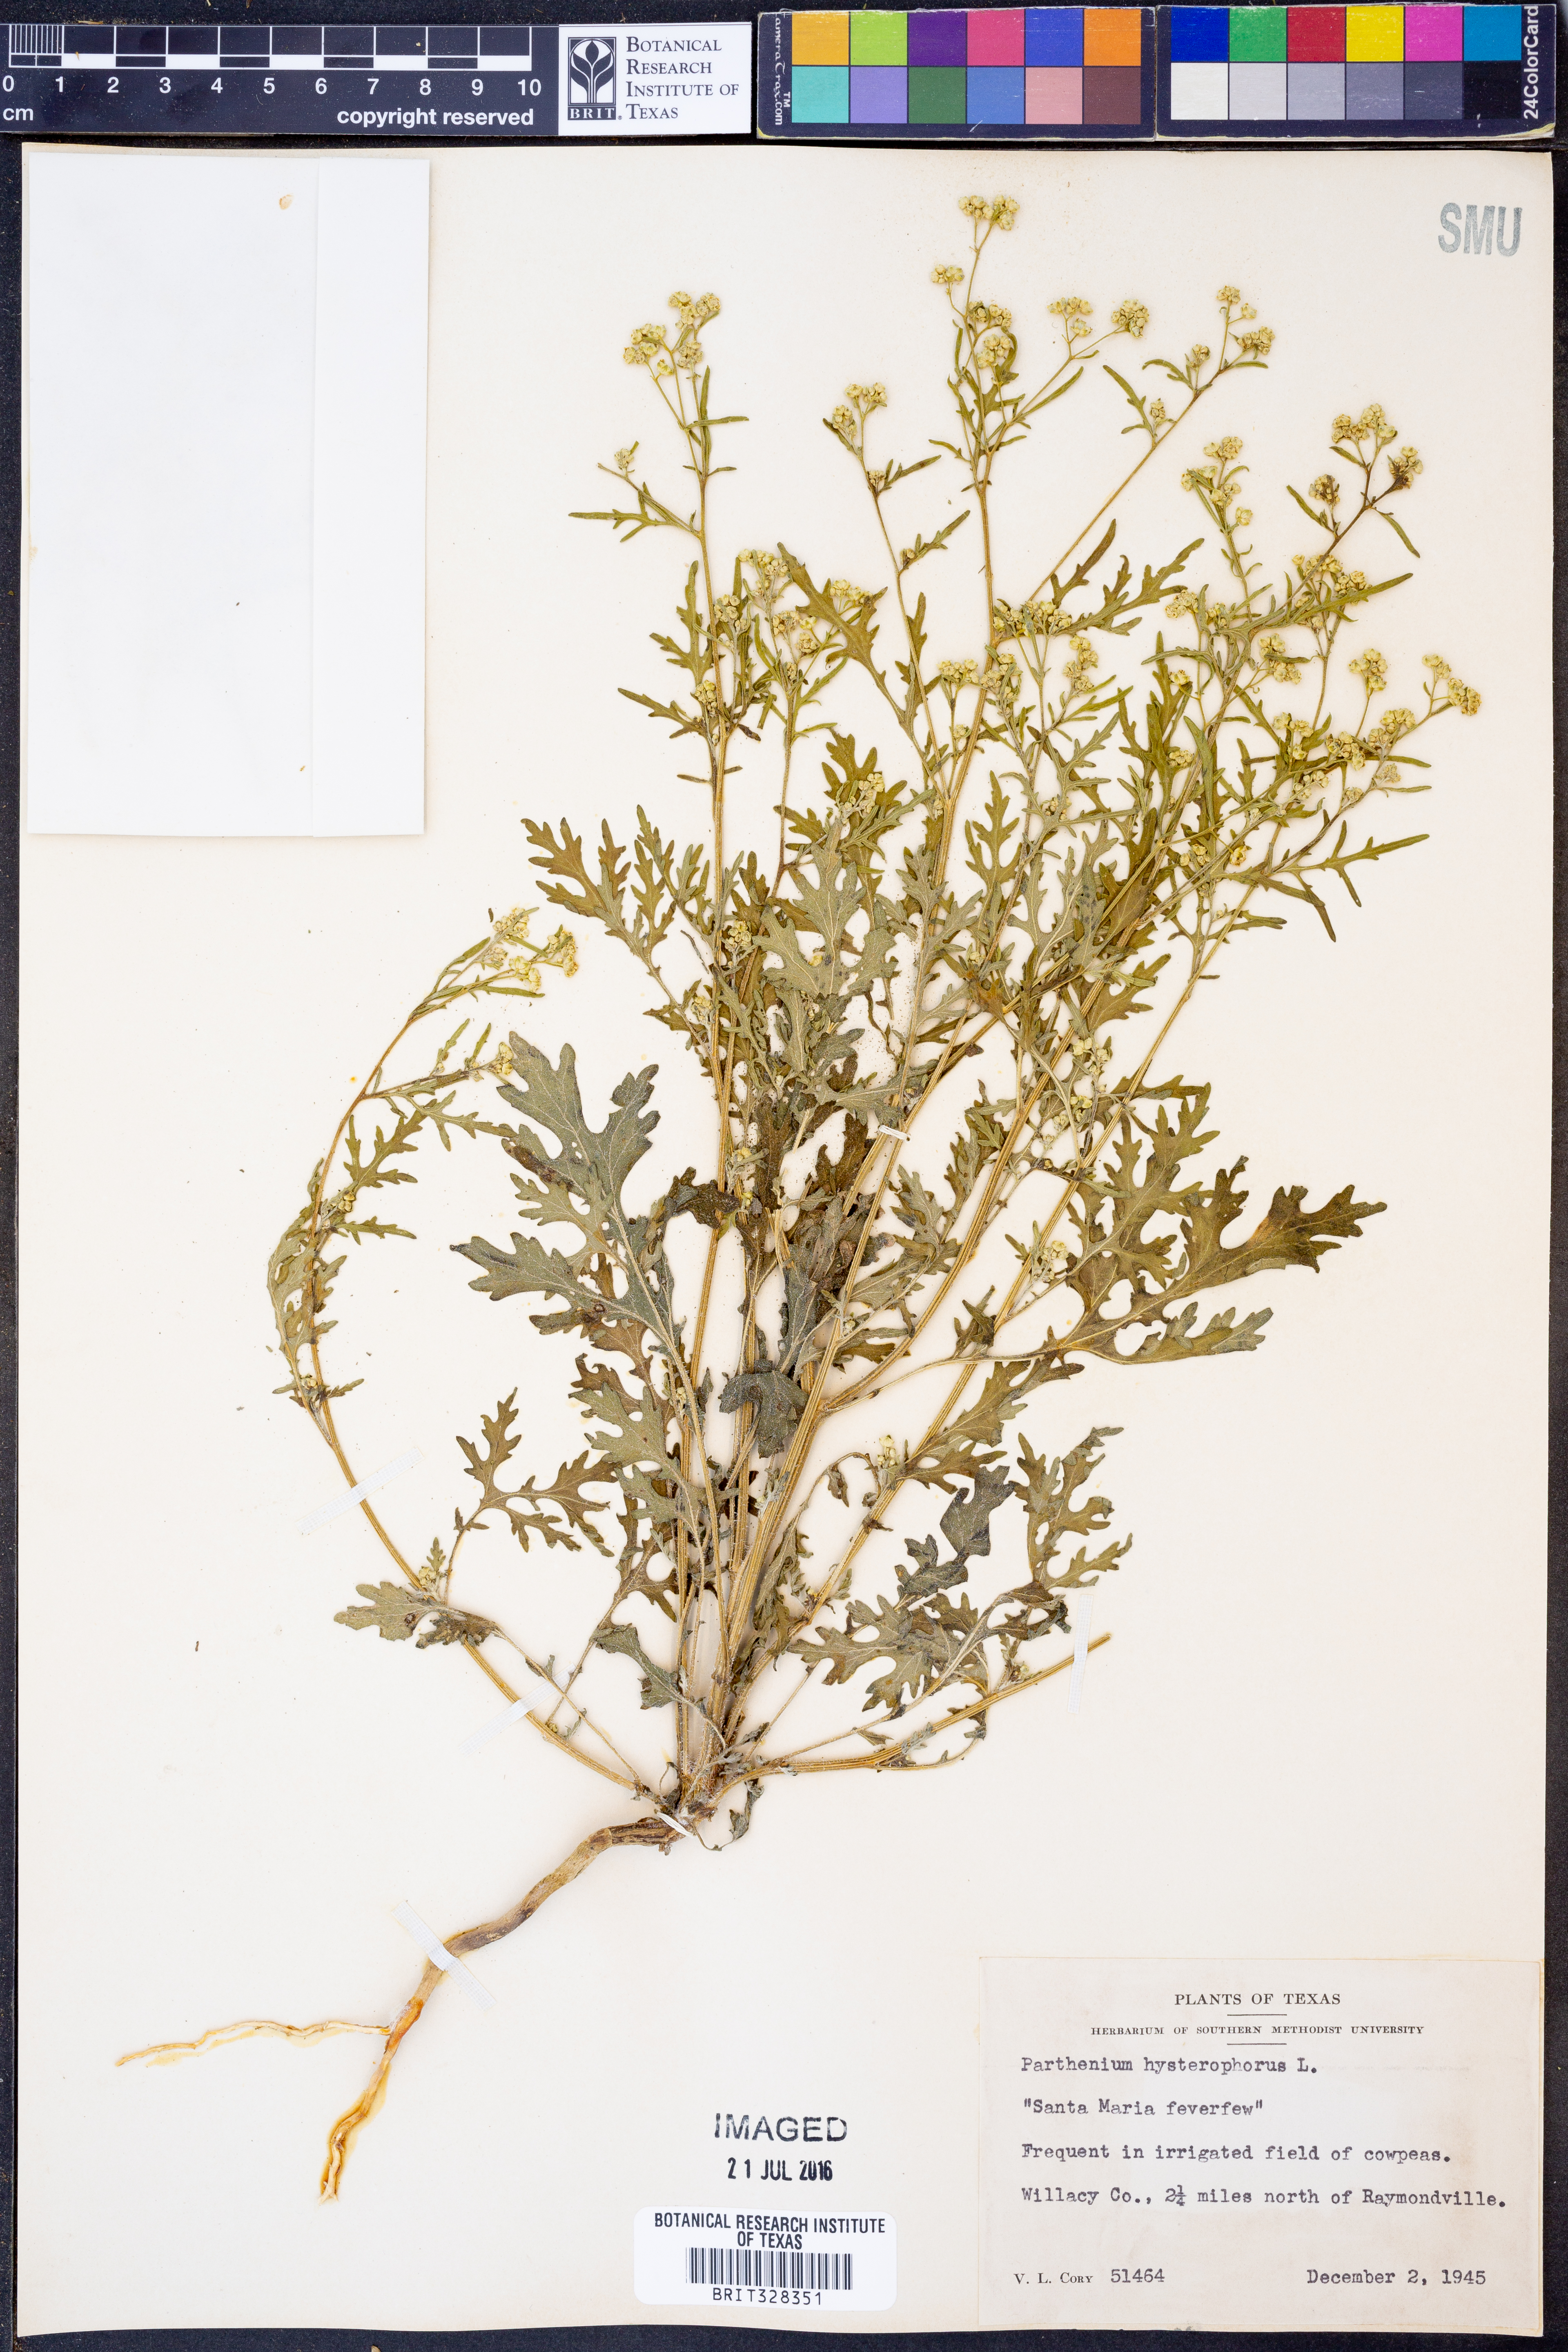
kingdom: Plantae
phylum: Tracheophyta
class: Magnoliopsida
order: Asterales
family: Asteraceae
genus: Parthenium
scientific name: Parthenium hysterophorus
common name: Santa maria feverfew
